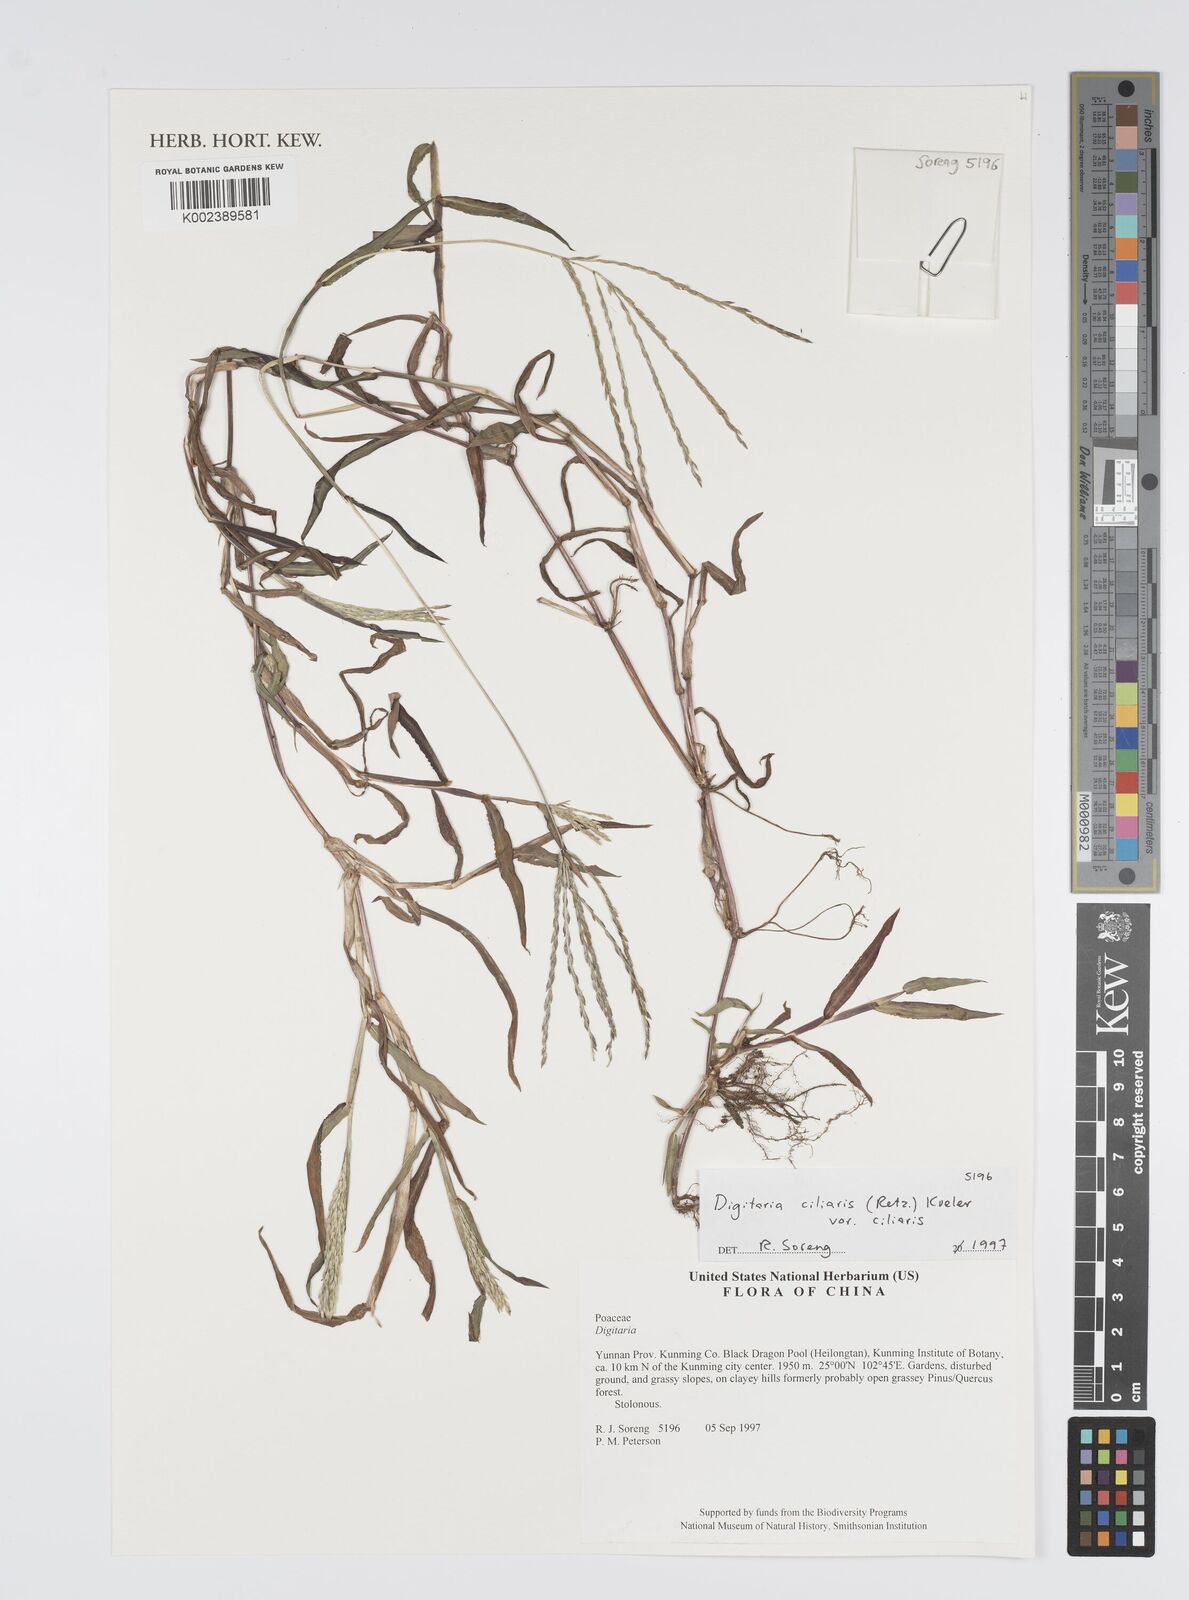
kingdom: Plantae
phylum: Tracheophyta
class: Liliopsida
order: Poales
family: Poaceae
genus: Digitaria
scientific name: Digitaria ciliaris
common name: Tropical finger-grass
